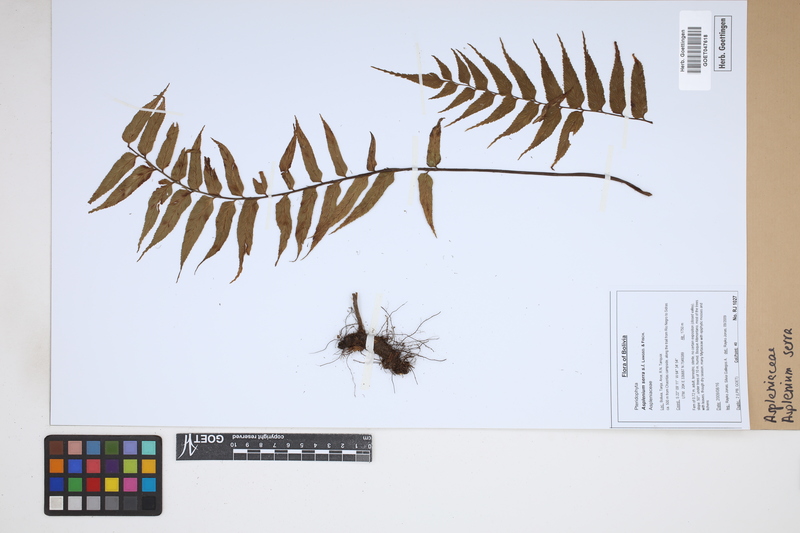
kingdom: Plantae
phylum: Tracheophyta
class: Polypodiopsida
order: Polypodiales
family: Aspleniaceae
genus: Asplenium
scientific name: Asplenium serra
